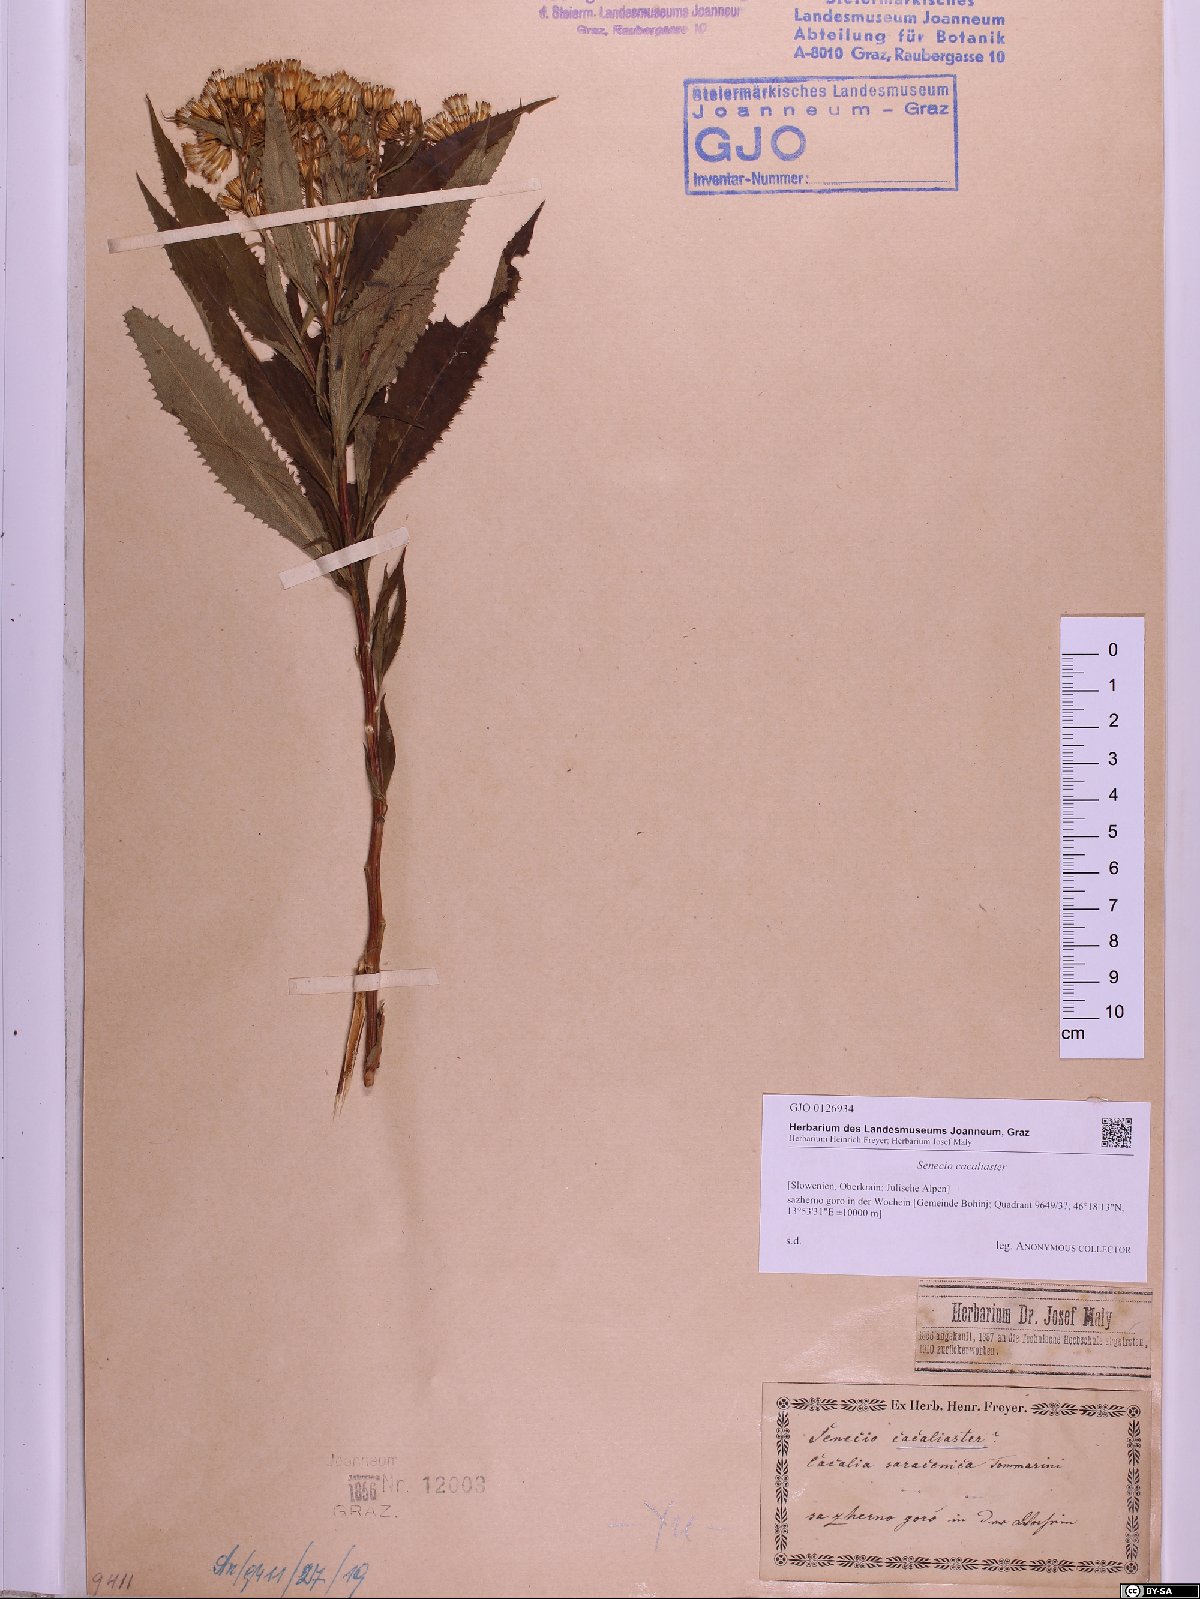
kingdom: Plantae
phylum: Tracheophyta
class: Magnoliopsida
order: Asterales
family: Asteraceae
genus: Senecio
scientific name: Senecio cacaliaster
